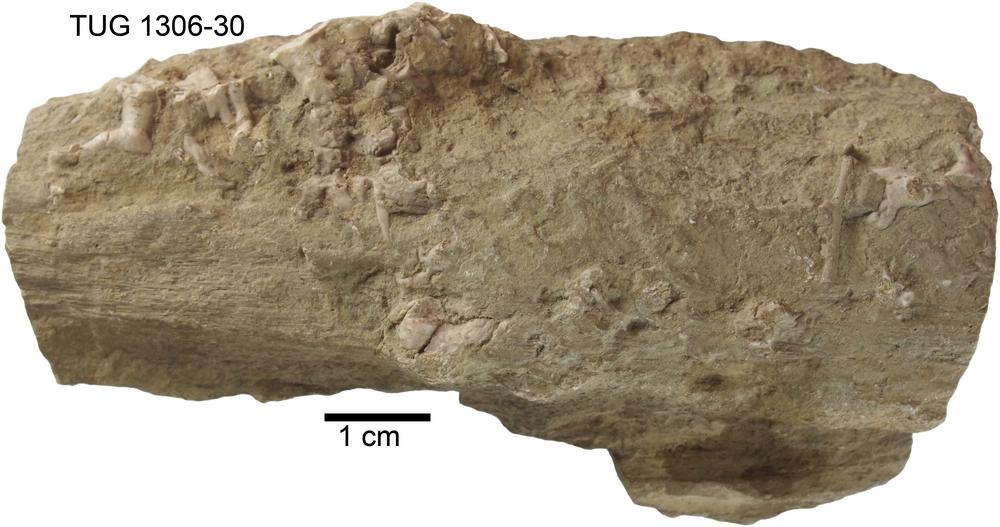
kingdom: Animalia
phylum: Porifera
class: Hexactinellida
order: Lyssacinosida
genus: Pyritonema
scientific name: Pyritonema
